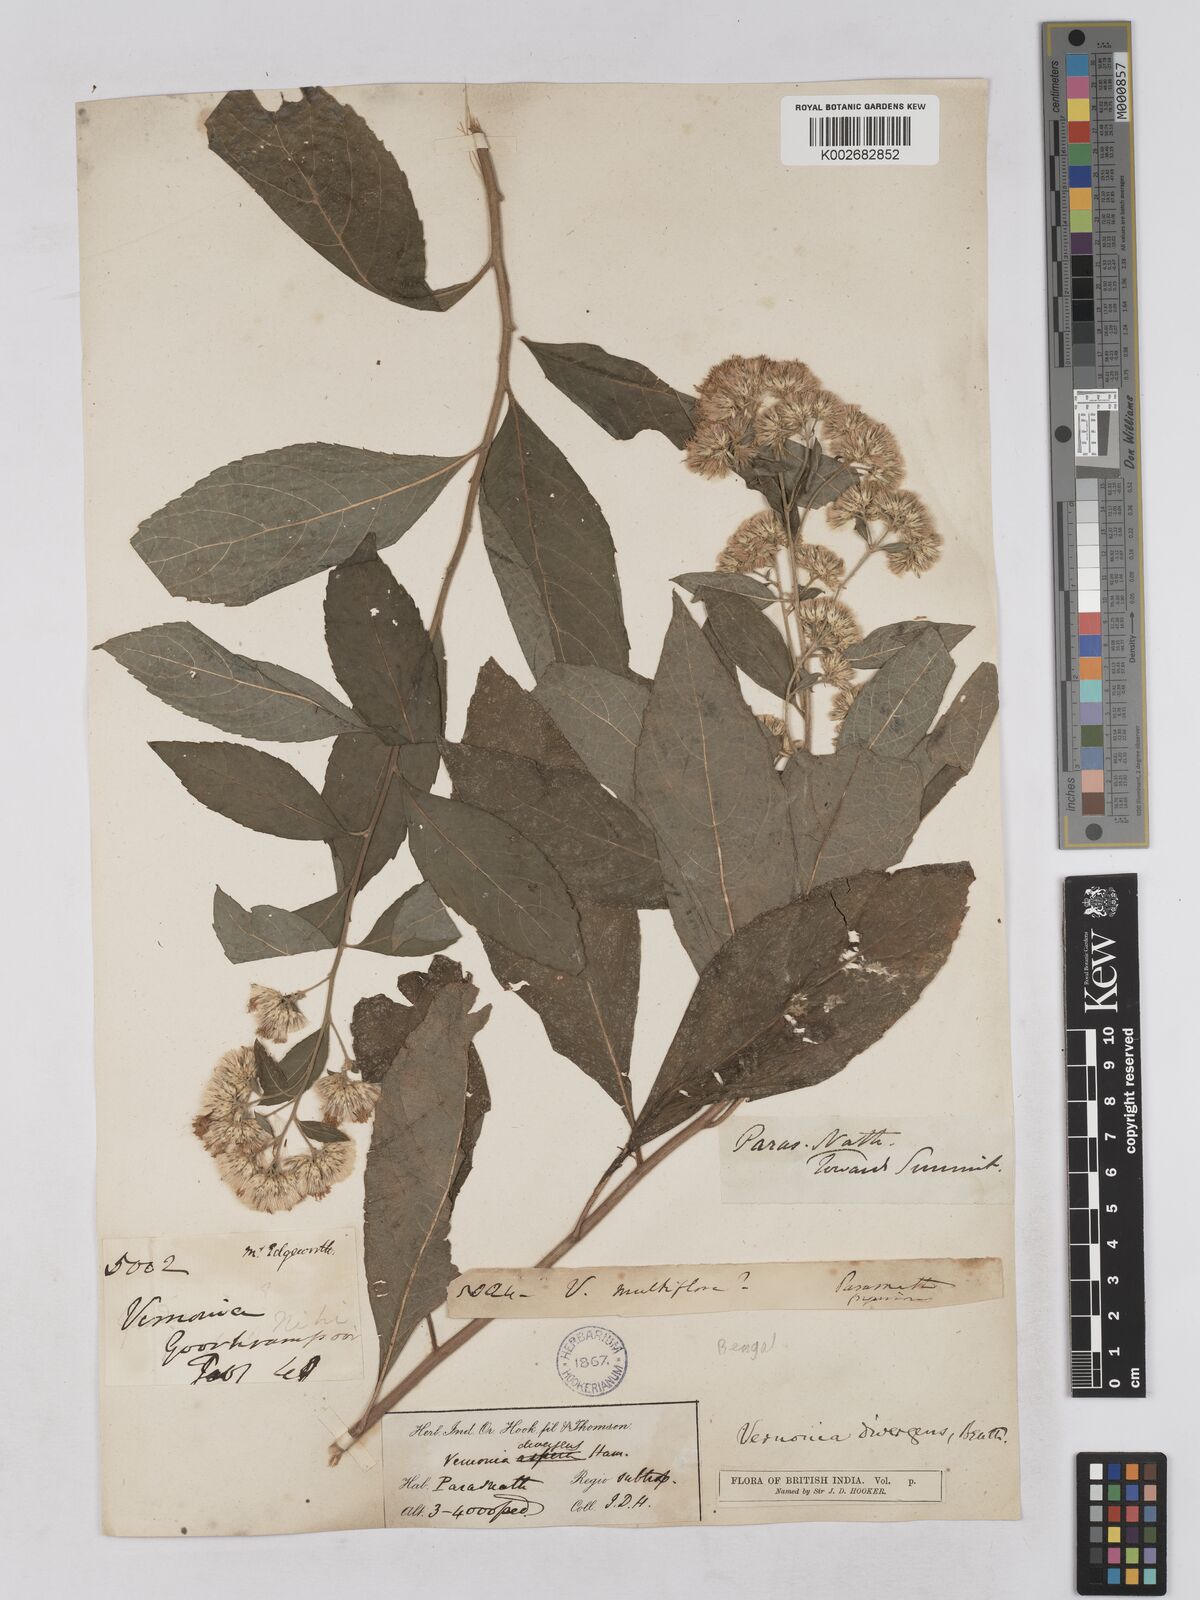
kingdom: Plantae
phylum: Tracheophyta
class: Magnoliopsida
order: Asterales
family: Asteraceae
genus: Acilepis
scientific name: Acilepis divergens
